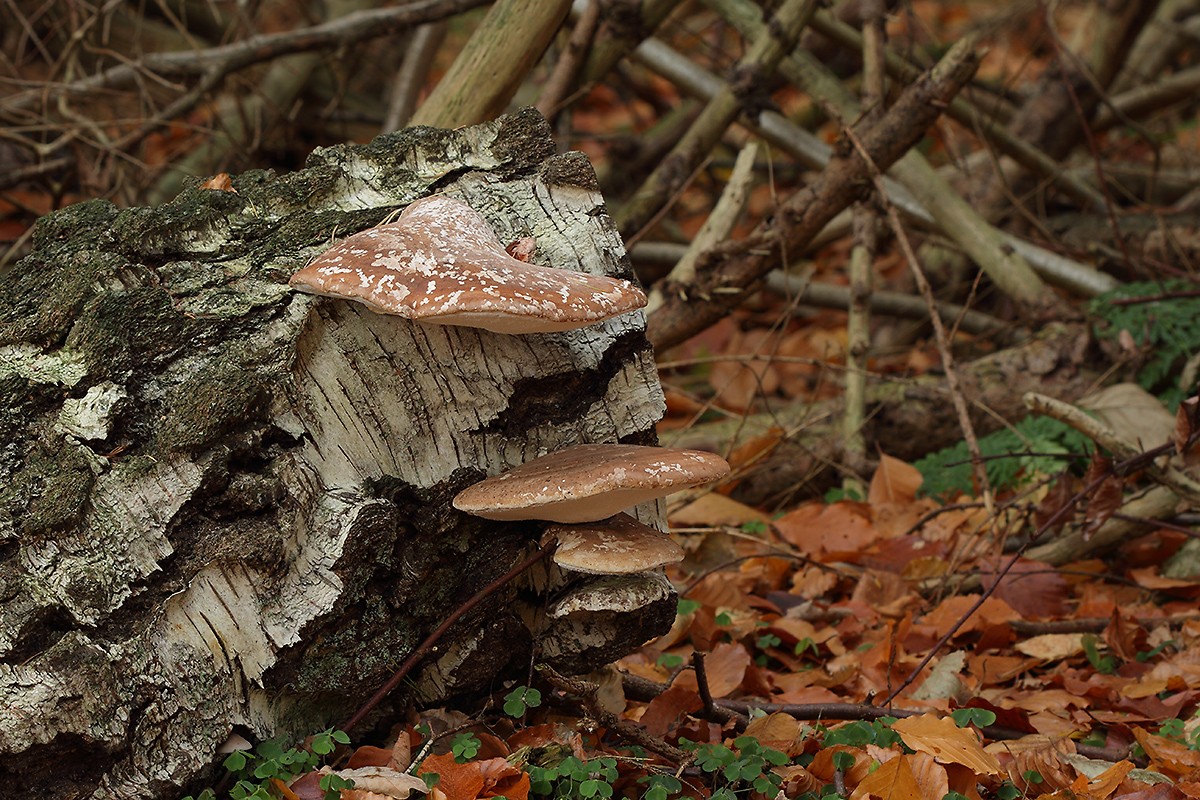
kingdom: Fungi
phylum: Basidiomycota
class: Agaricomycetes
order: Polyporales
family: Fomitopsidaceae
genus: Fomitopsis
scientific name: Fomitopsis betulina
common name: birkeporesvamp
